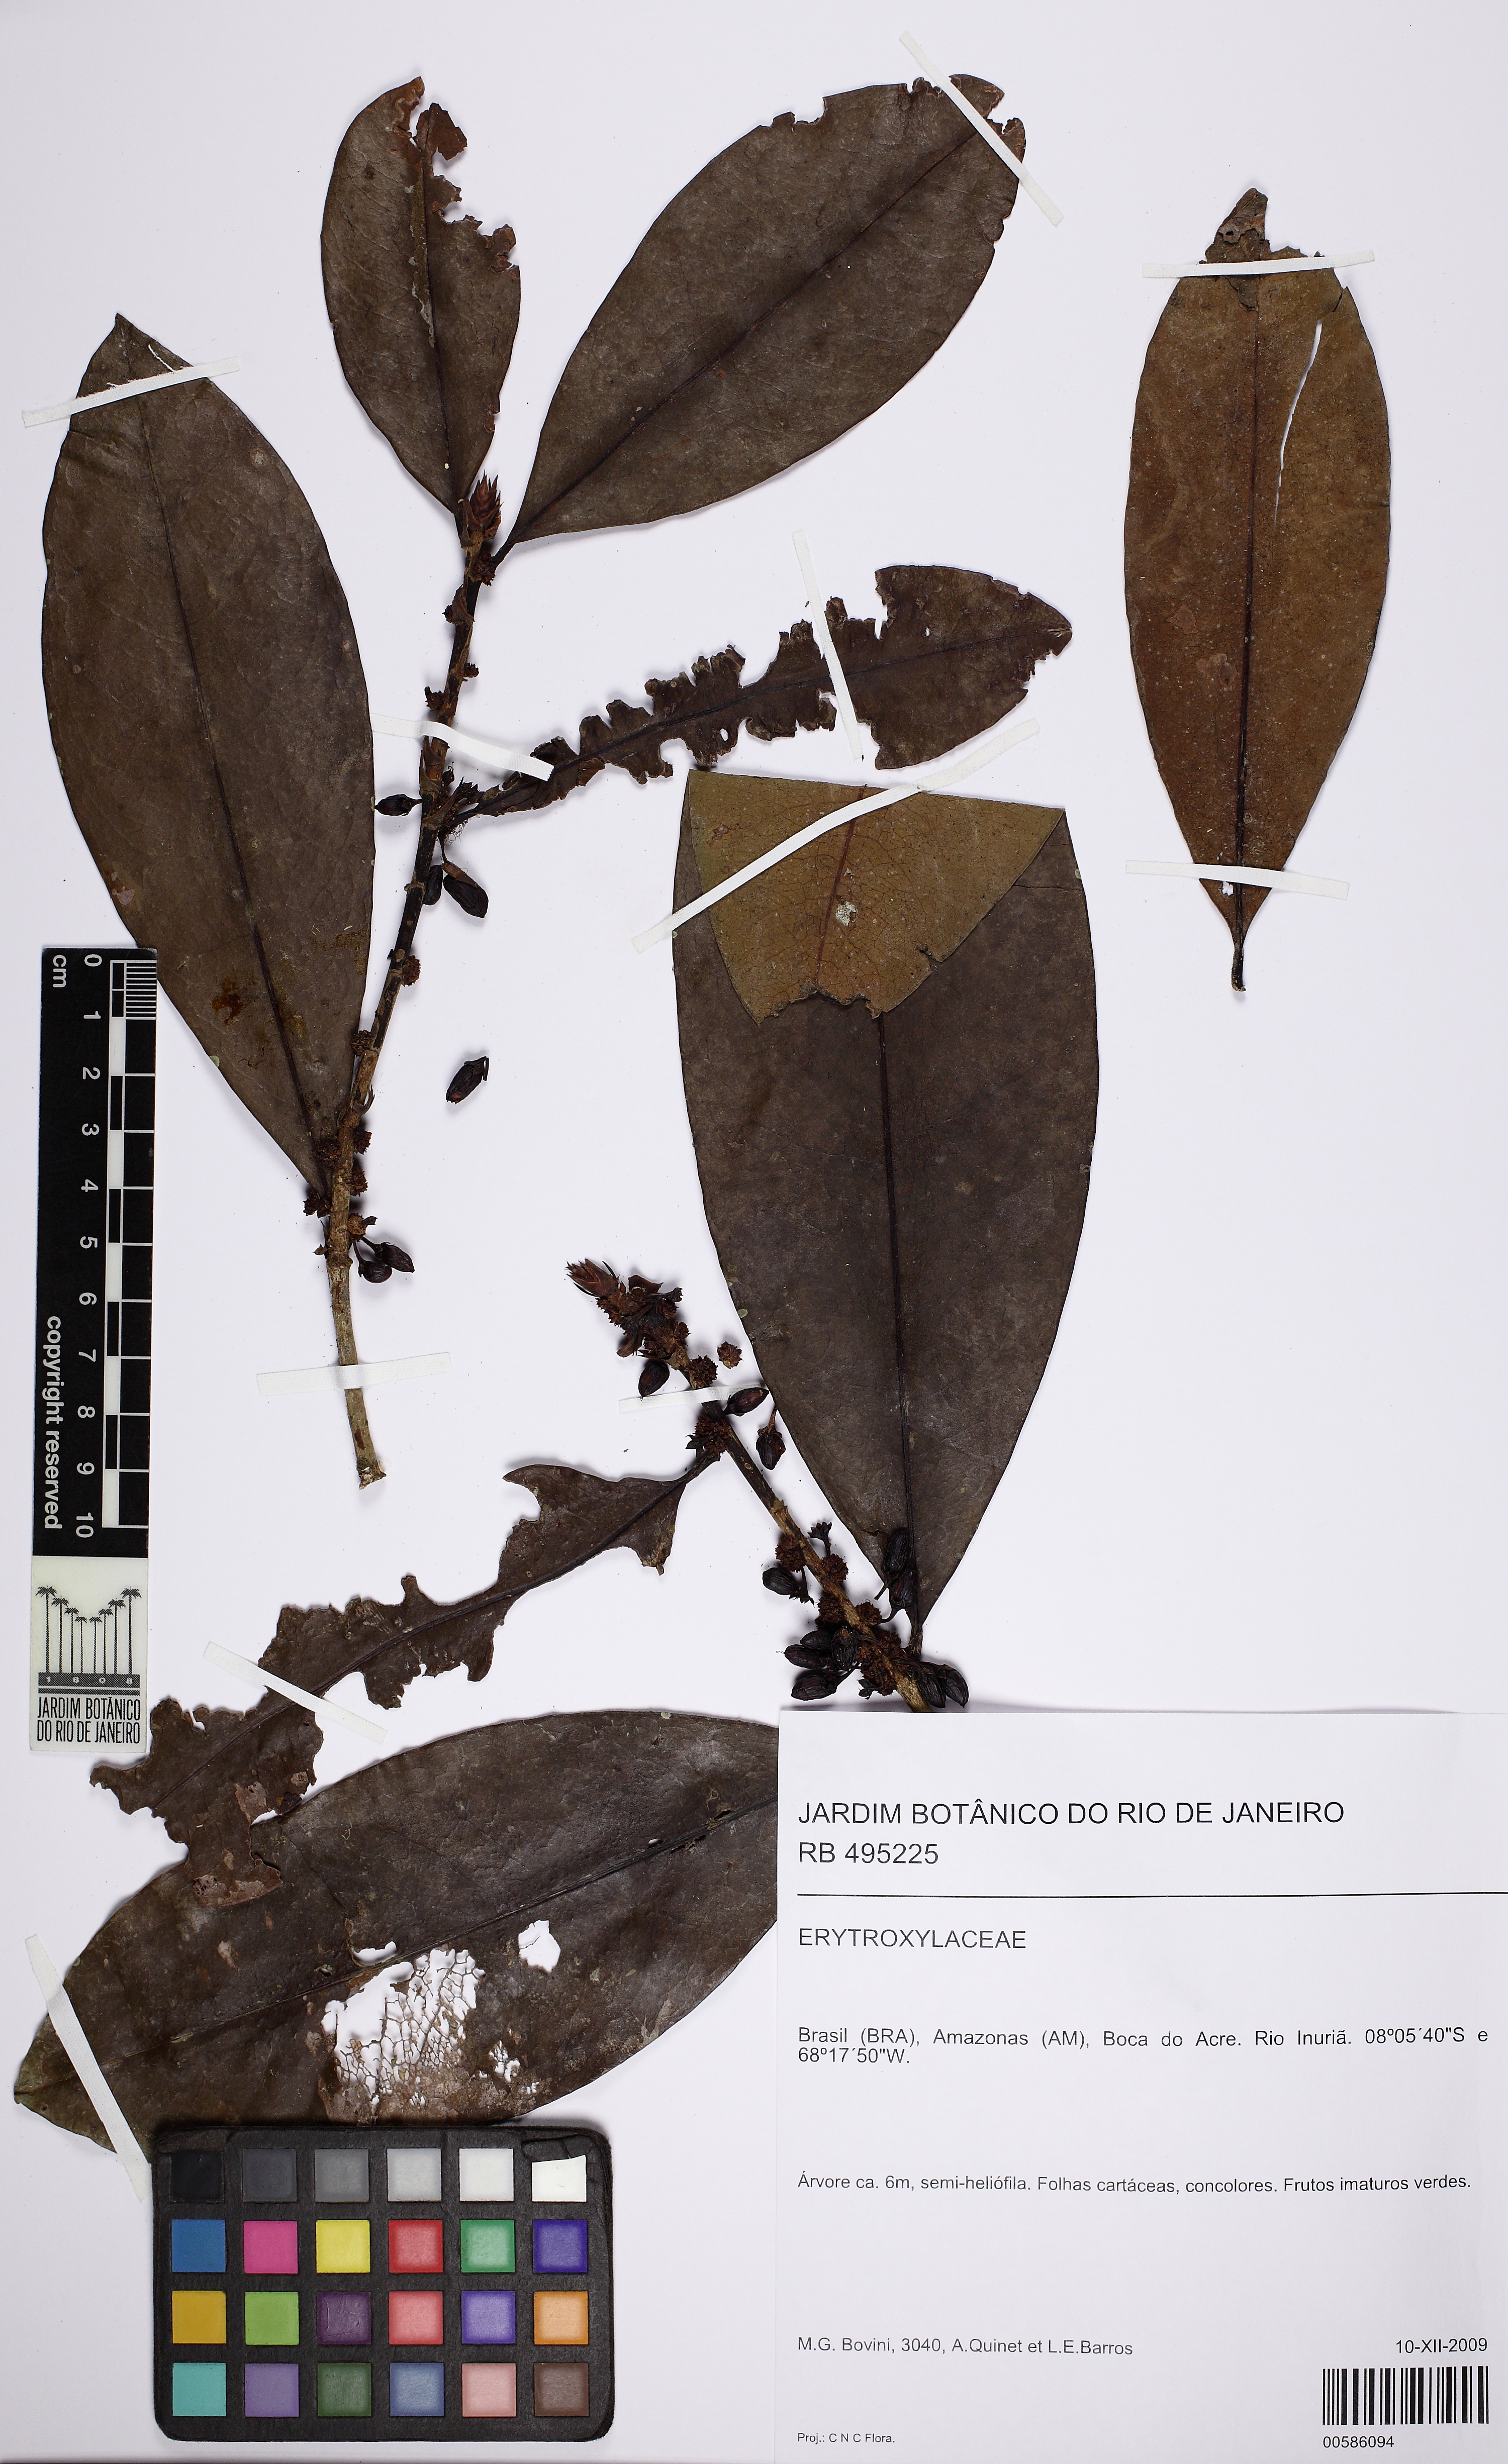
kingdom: Plantae
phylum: Tracheophyta
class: Magnoliopsida
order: Malpighiales
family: Erythroxylaceae
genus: Erythroxylum
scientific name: Erythroxylum macrophyllum
